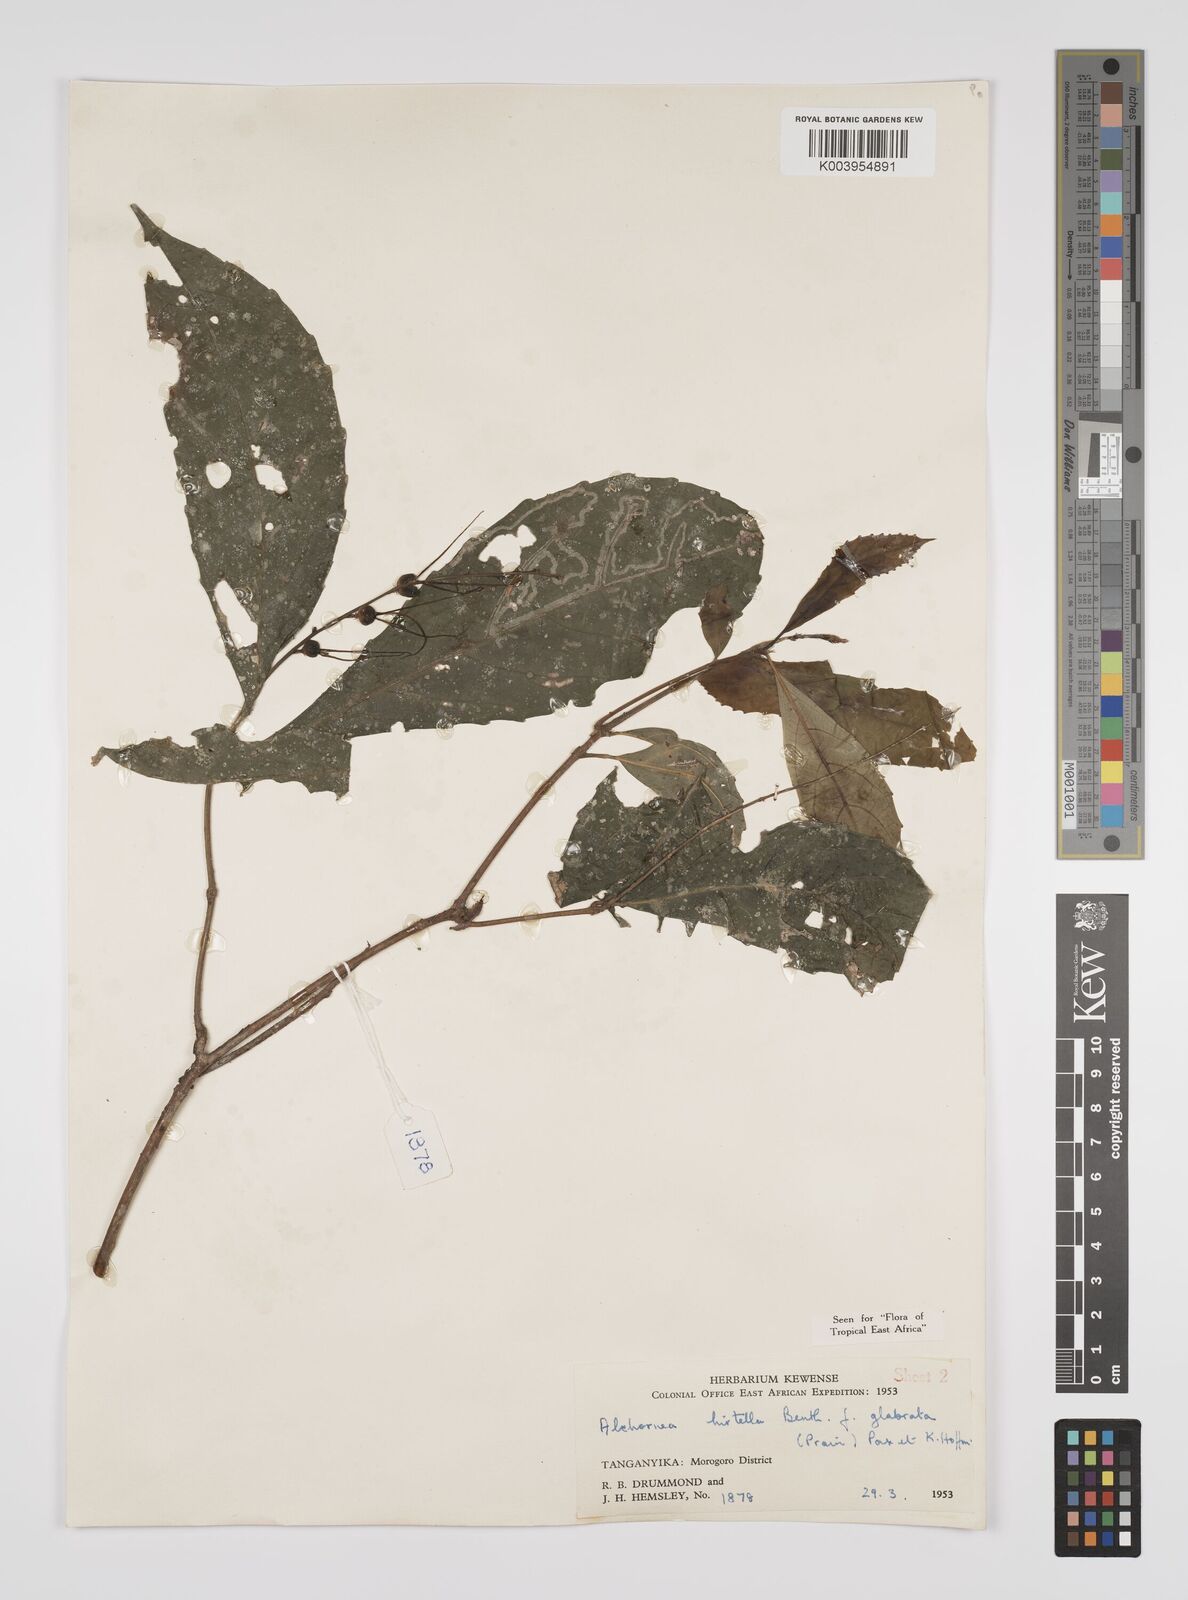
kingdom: Plantae
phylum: Tracheophyta
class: Magnoliopsida
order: Malpighiales
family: Euphorbiaceae
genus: Alchornea
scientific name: Alchornea hirtella
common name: Forest bead-string
